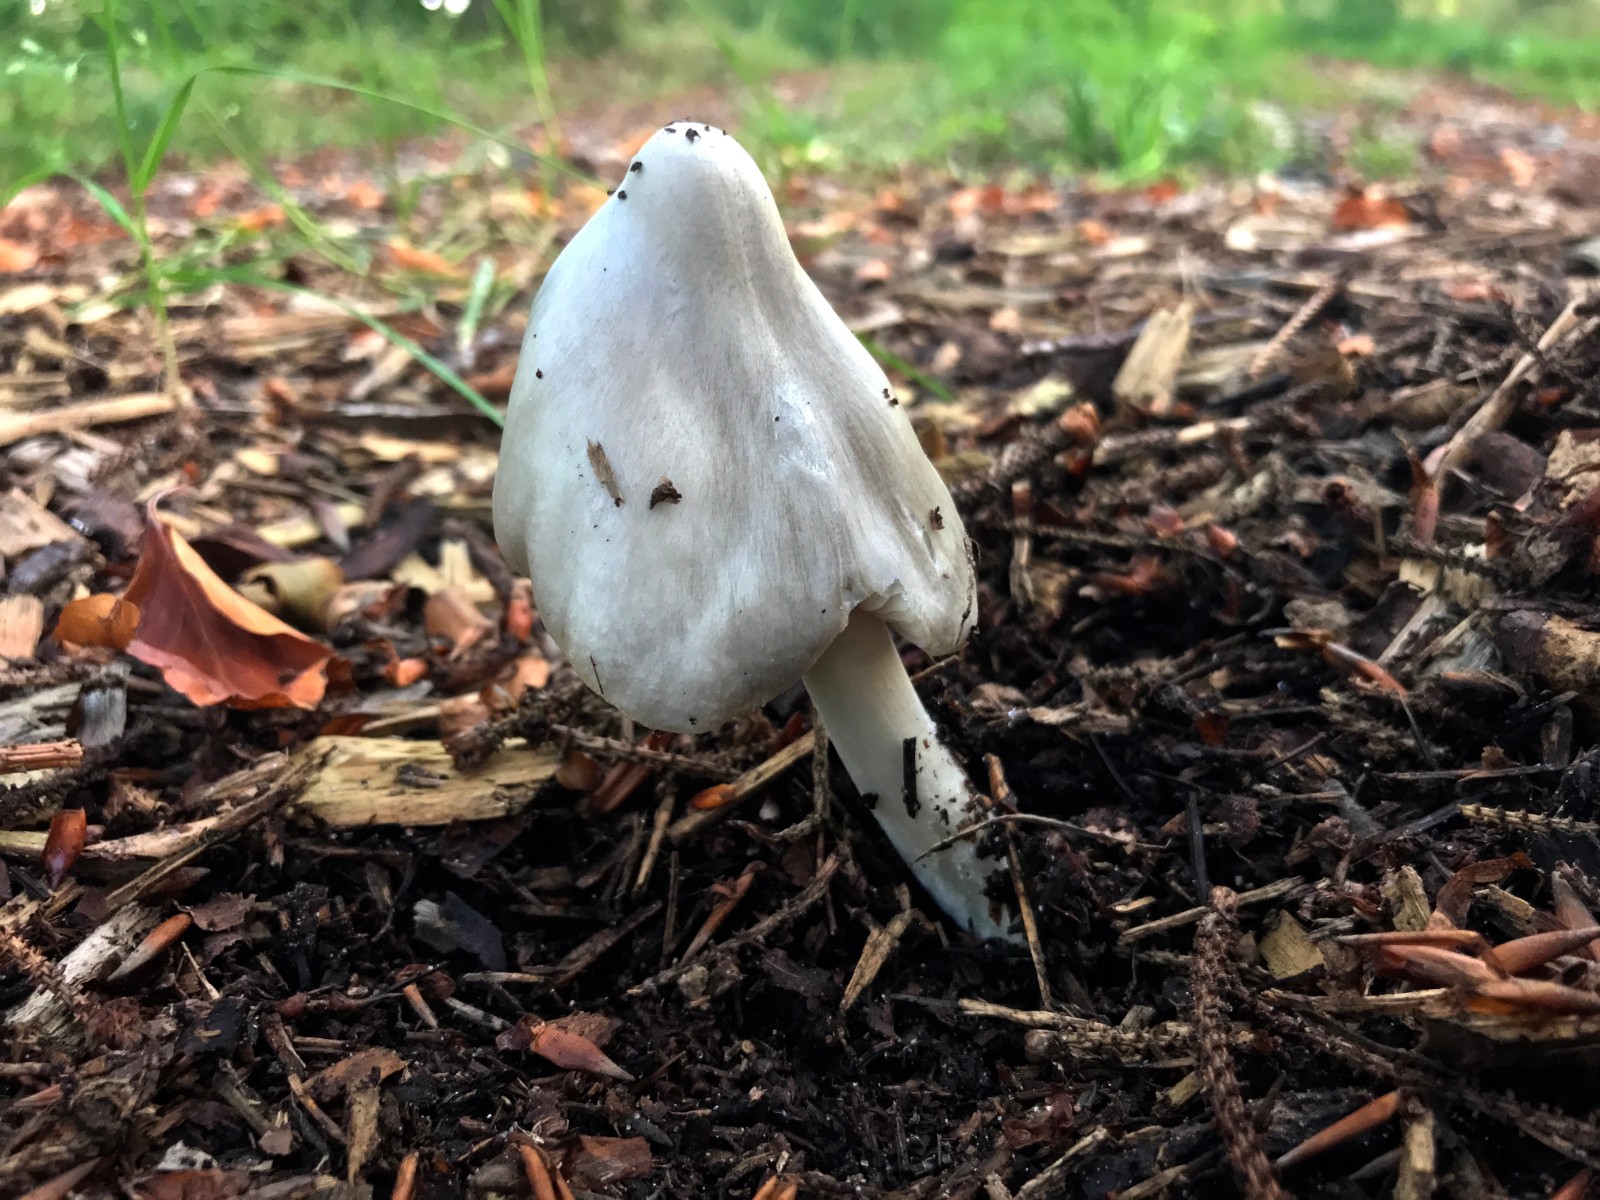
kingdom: Fungi
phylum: Basidiomycota
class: Agaricomycetes
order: Agaricales
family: Pluteaceae
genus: Volvopluteus
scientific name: Volvopluteus gloiocephalus
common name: høj posesvamp
